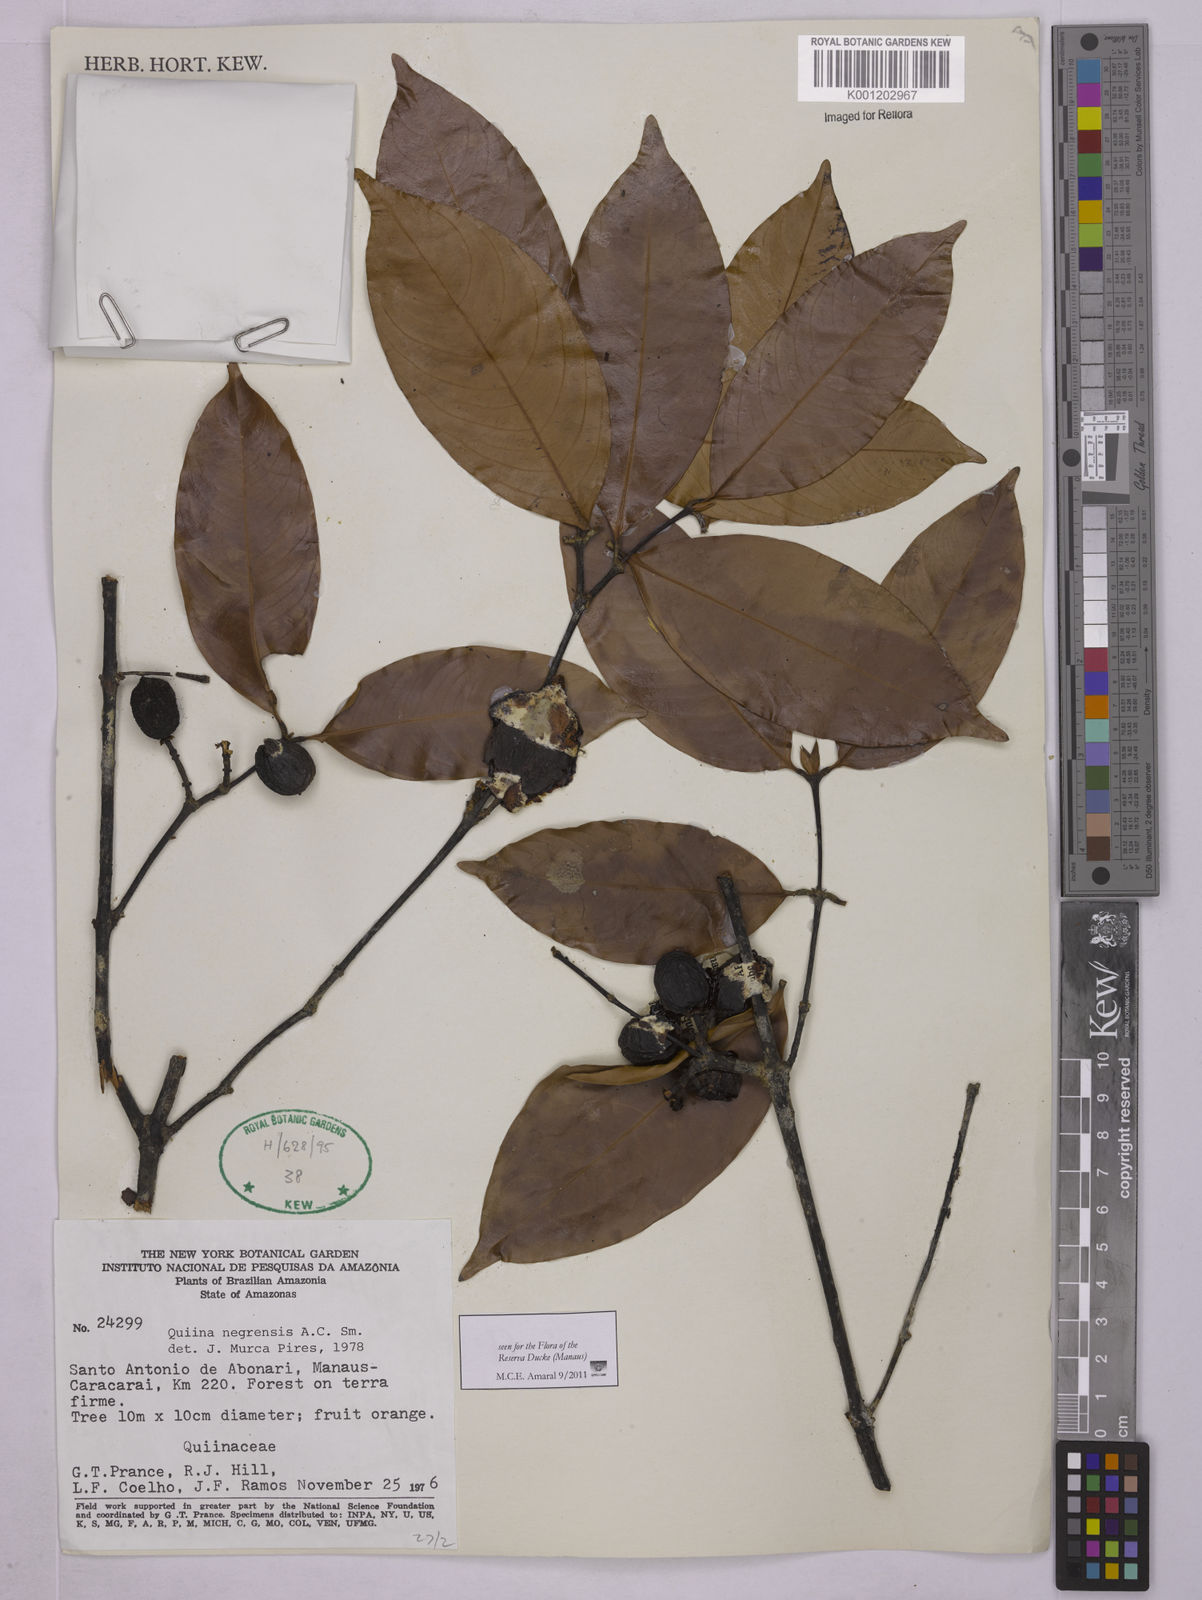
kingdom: Plantae
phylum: Tracheophyta
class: Magnoliopsida
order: Malpighiales
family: Quiinaceae
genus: Quiina
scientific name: Quiina negrensis
